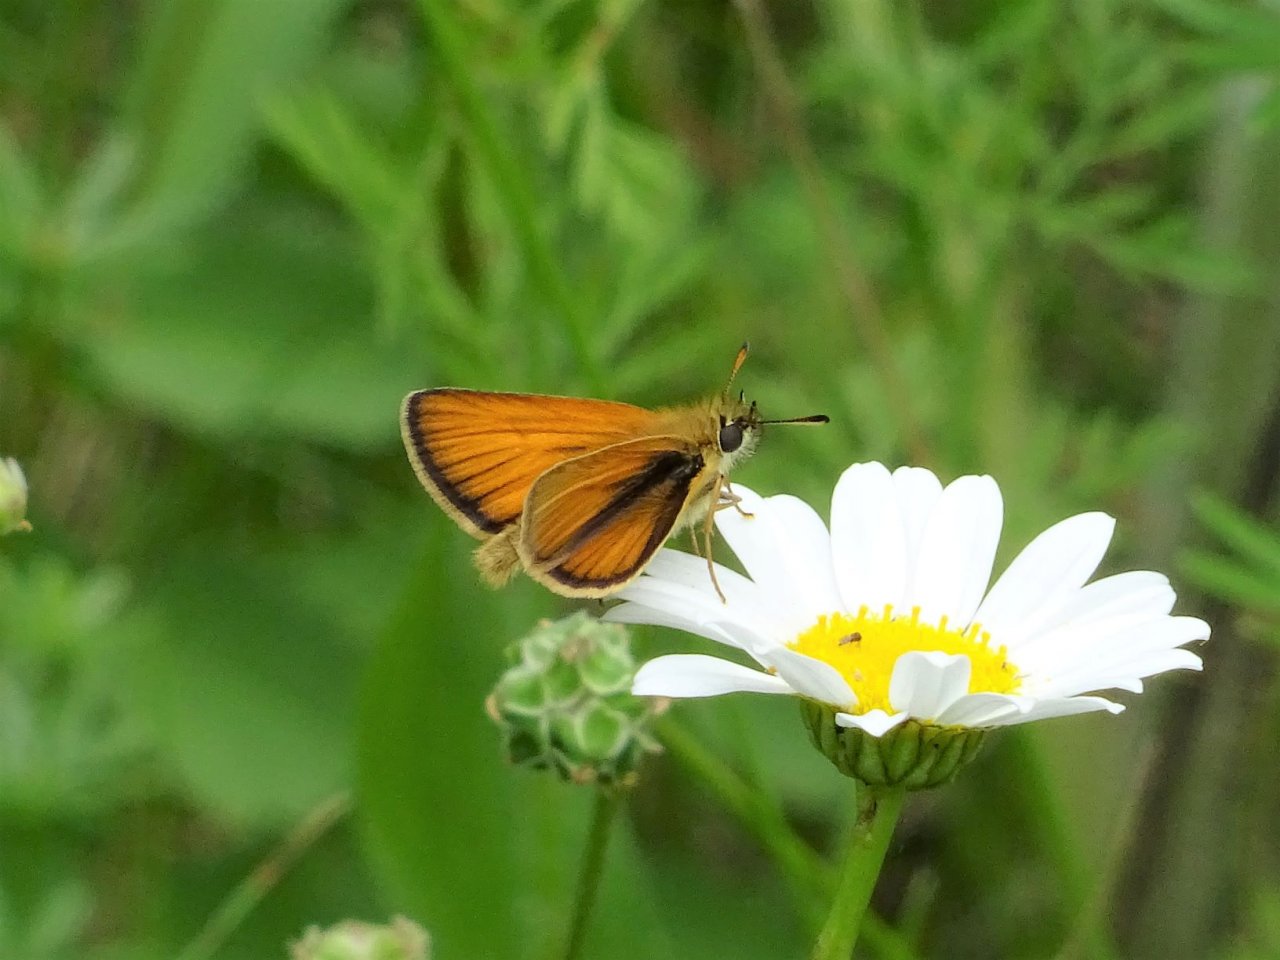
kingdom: Animalia
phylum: Arthropoda
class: Insecta
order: Lepidoptera
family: Hesperiidae
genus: Thymelicus
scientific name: Thymelicus lineola
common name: European Skipper
